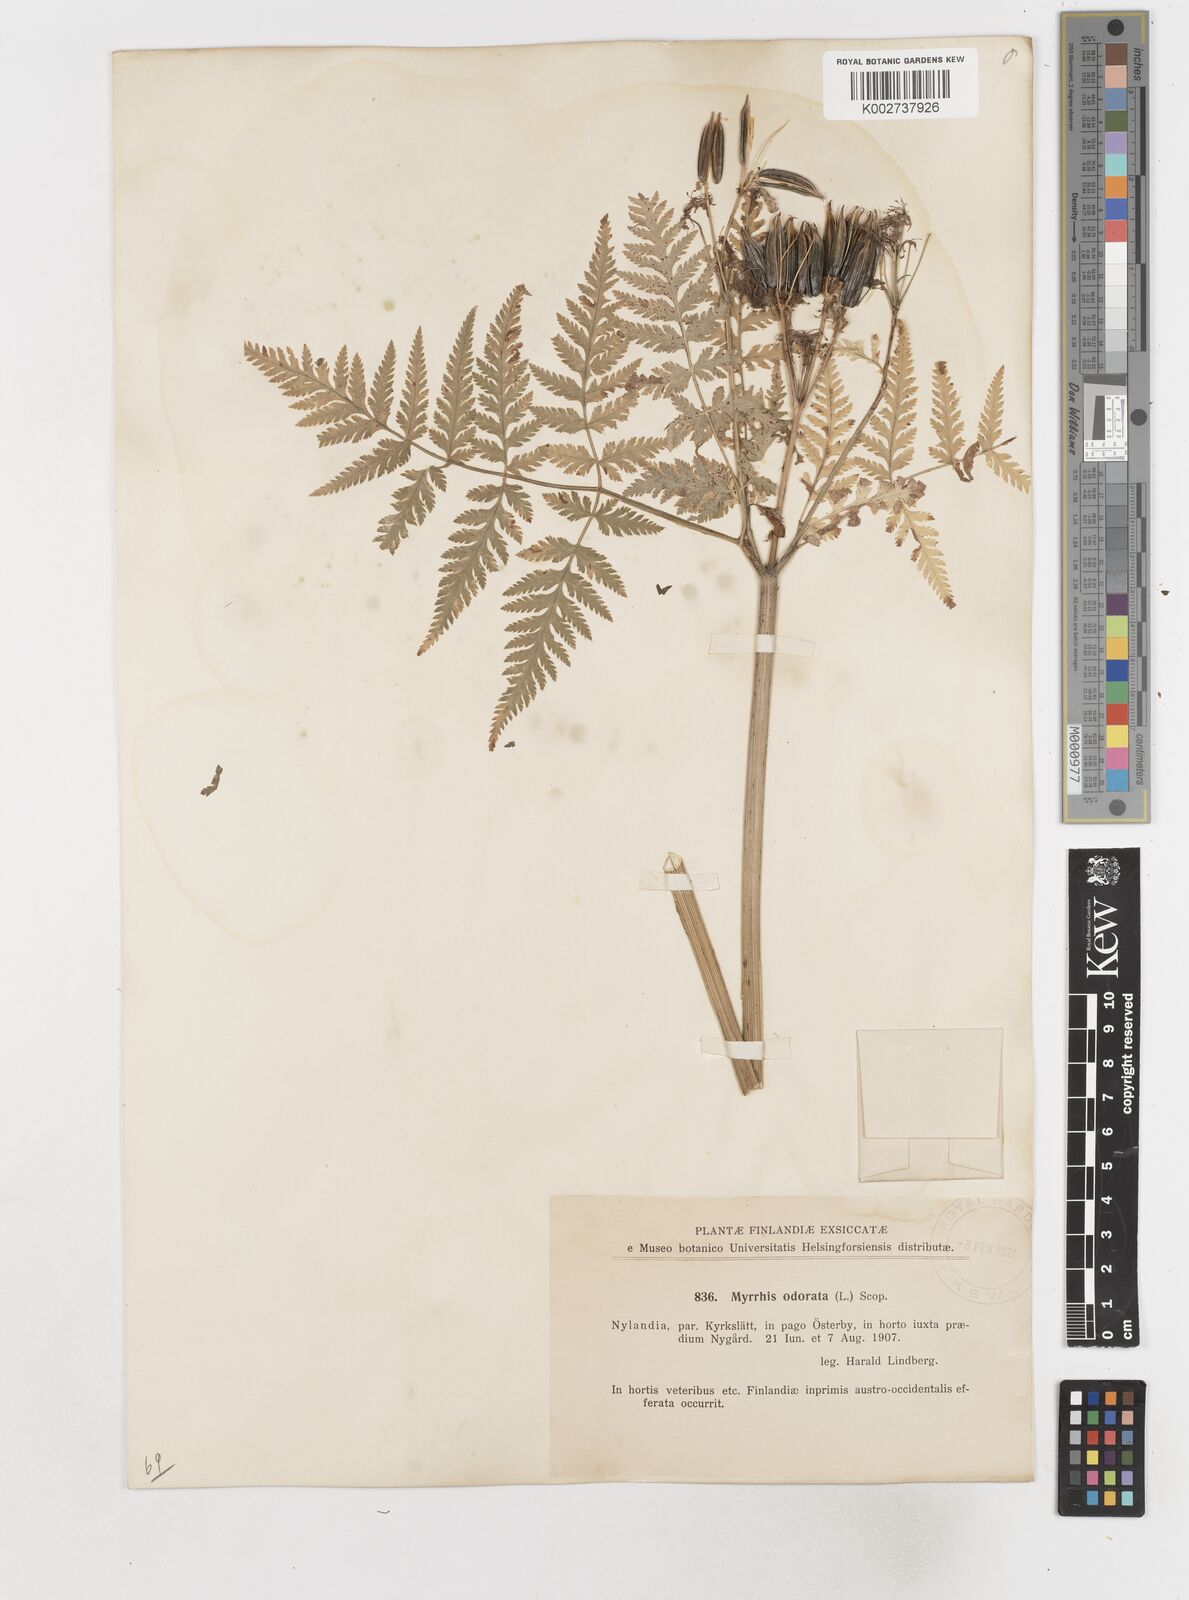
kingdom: Plantae
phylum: Tracheophyta
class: Magnoliopsida
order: Apiales
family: Apiaceae
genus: Myrrhis
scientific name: Myrrhis odorata
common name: Sweet cicely
